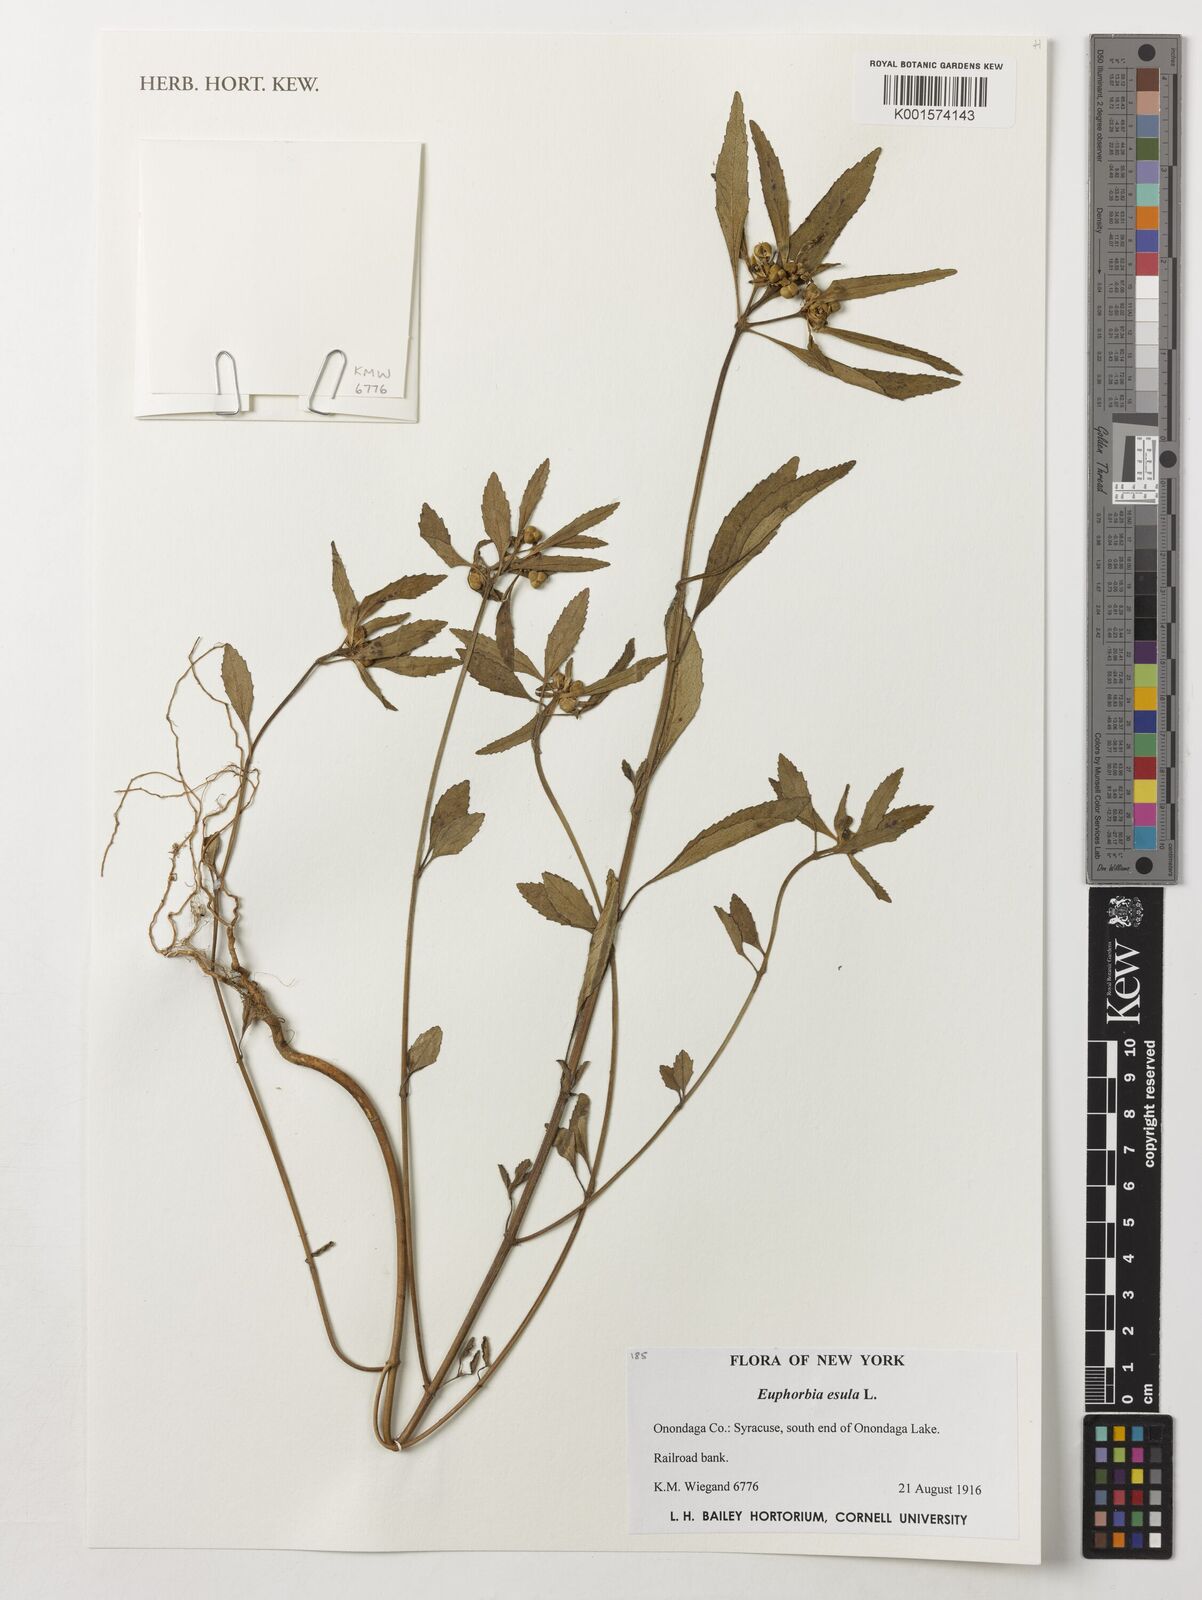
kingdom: Plantae
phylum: Tracheophyta
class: Magnoliopsida
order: Malpighiales
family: Euphorbiaceae
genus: Euphorbia
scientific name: Euphorbia esula
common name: Leafy spurge
